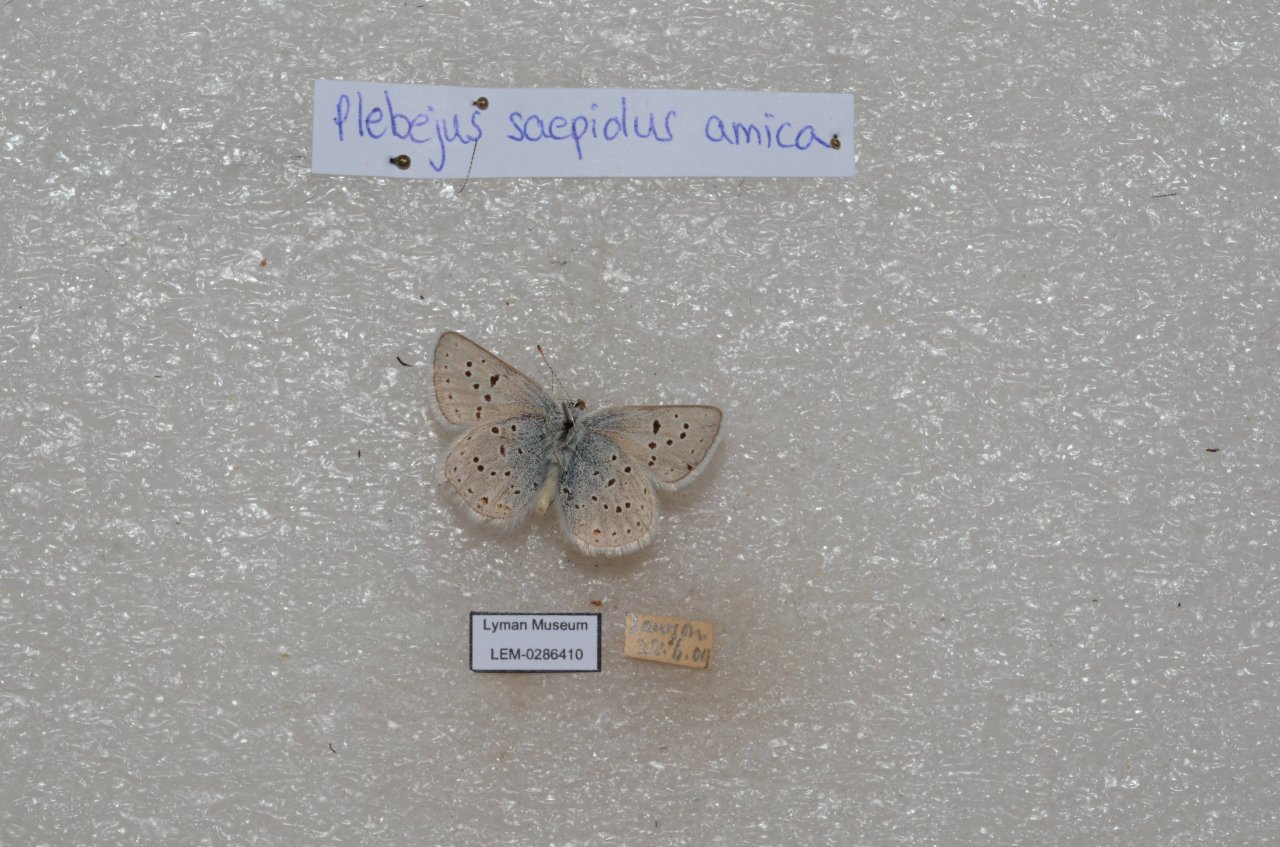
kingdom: Animalia
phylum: Arthropoda
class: Insecta
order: Lepidoptera
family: Lycaenidae
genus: Plebejus
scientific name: Plebejus saepiolus
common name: Greenish Blue
